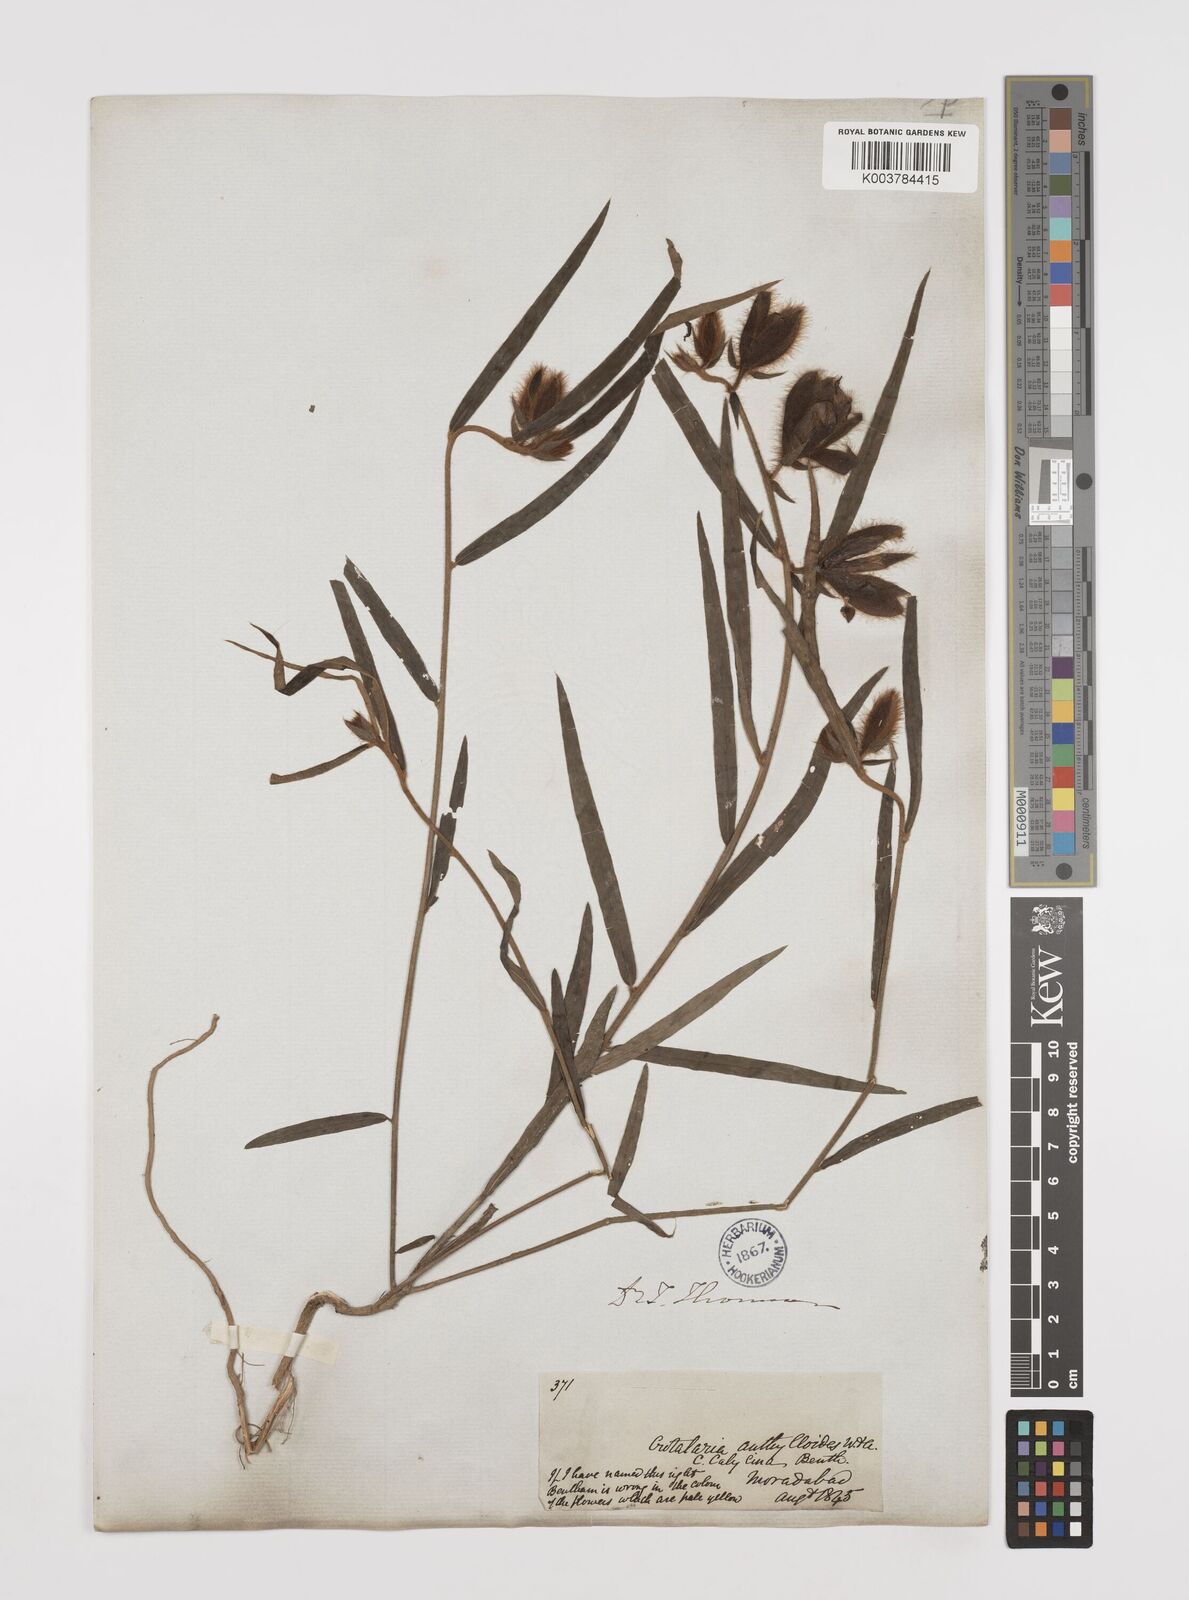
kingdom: Plantae
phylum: Tracheophyta
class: Magnoliopsida
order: Fabales
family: Fabaceae
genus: Crotalaria
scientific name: Crotalaria calycina
